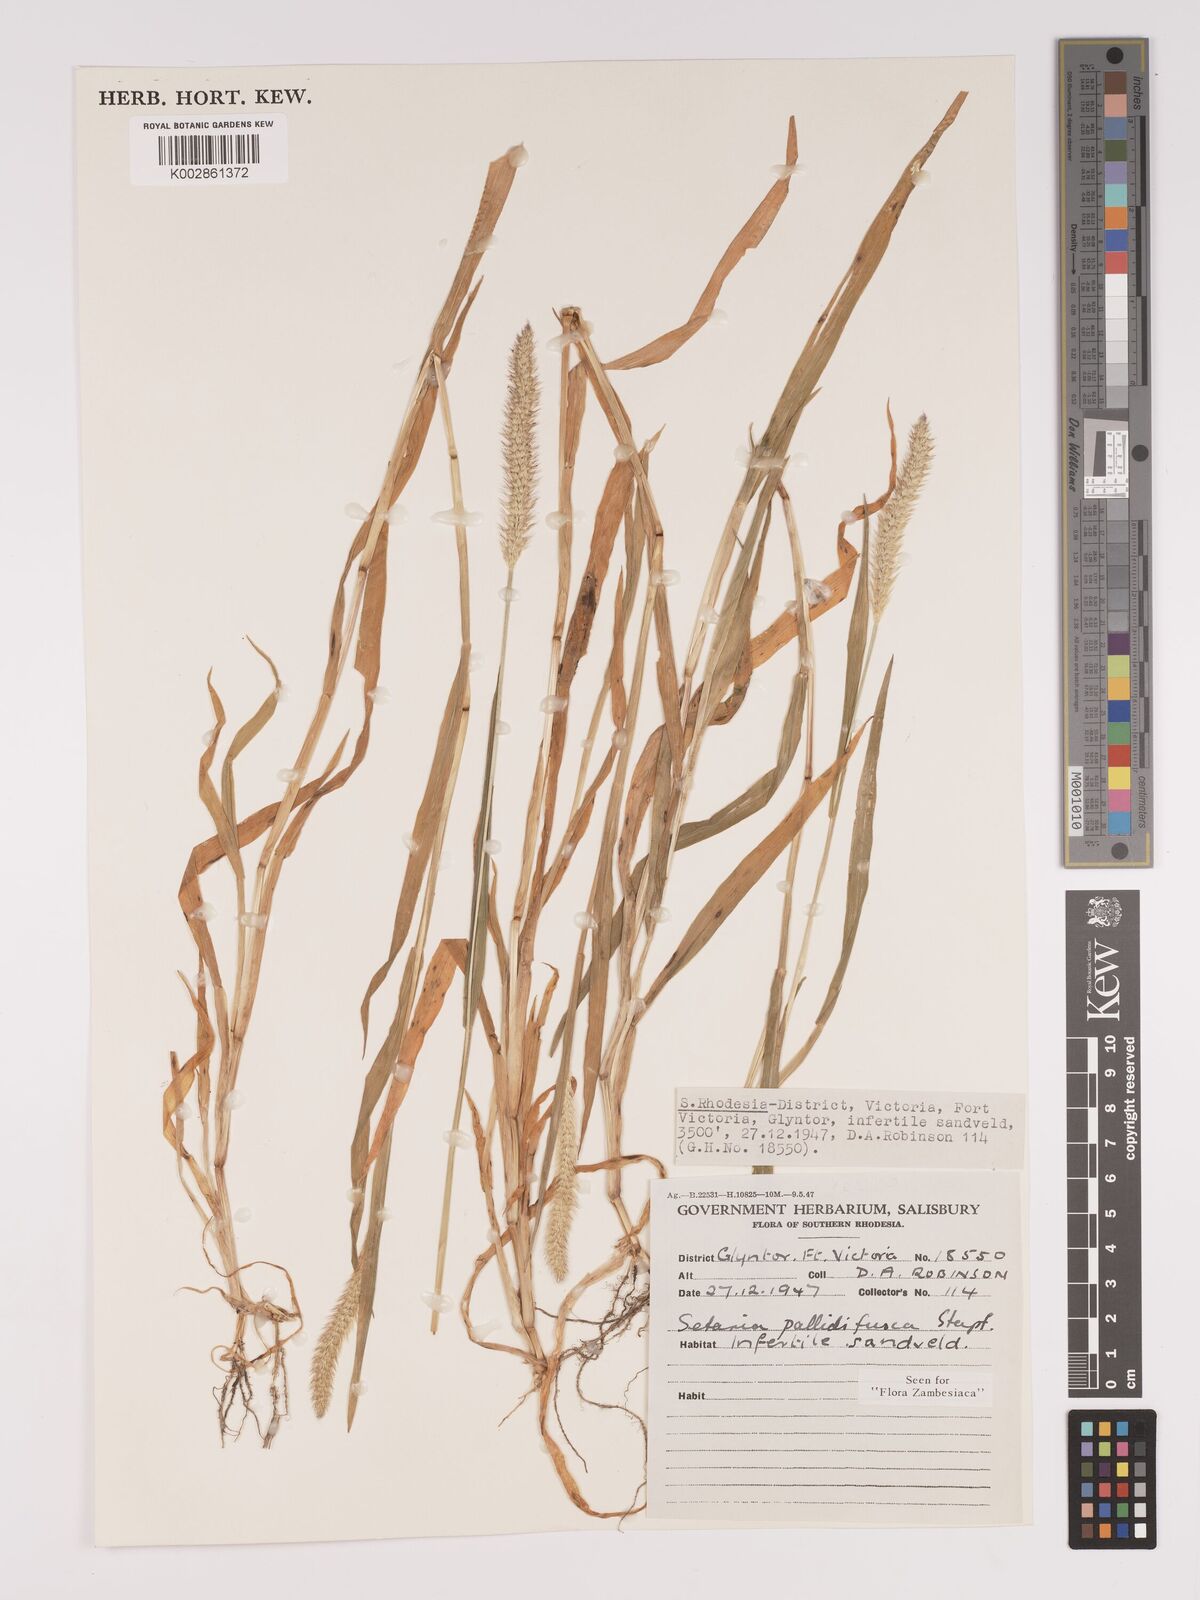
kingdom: Plantae
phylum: Tracheophyta
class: Liliopsida
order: Poales
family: Poaceae
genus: Setaria
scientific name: Setaria pumila
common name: Yellow bristle-grass
